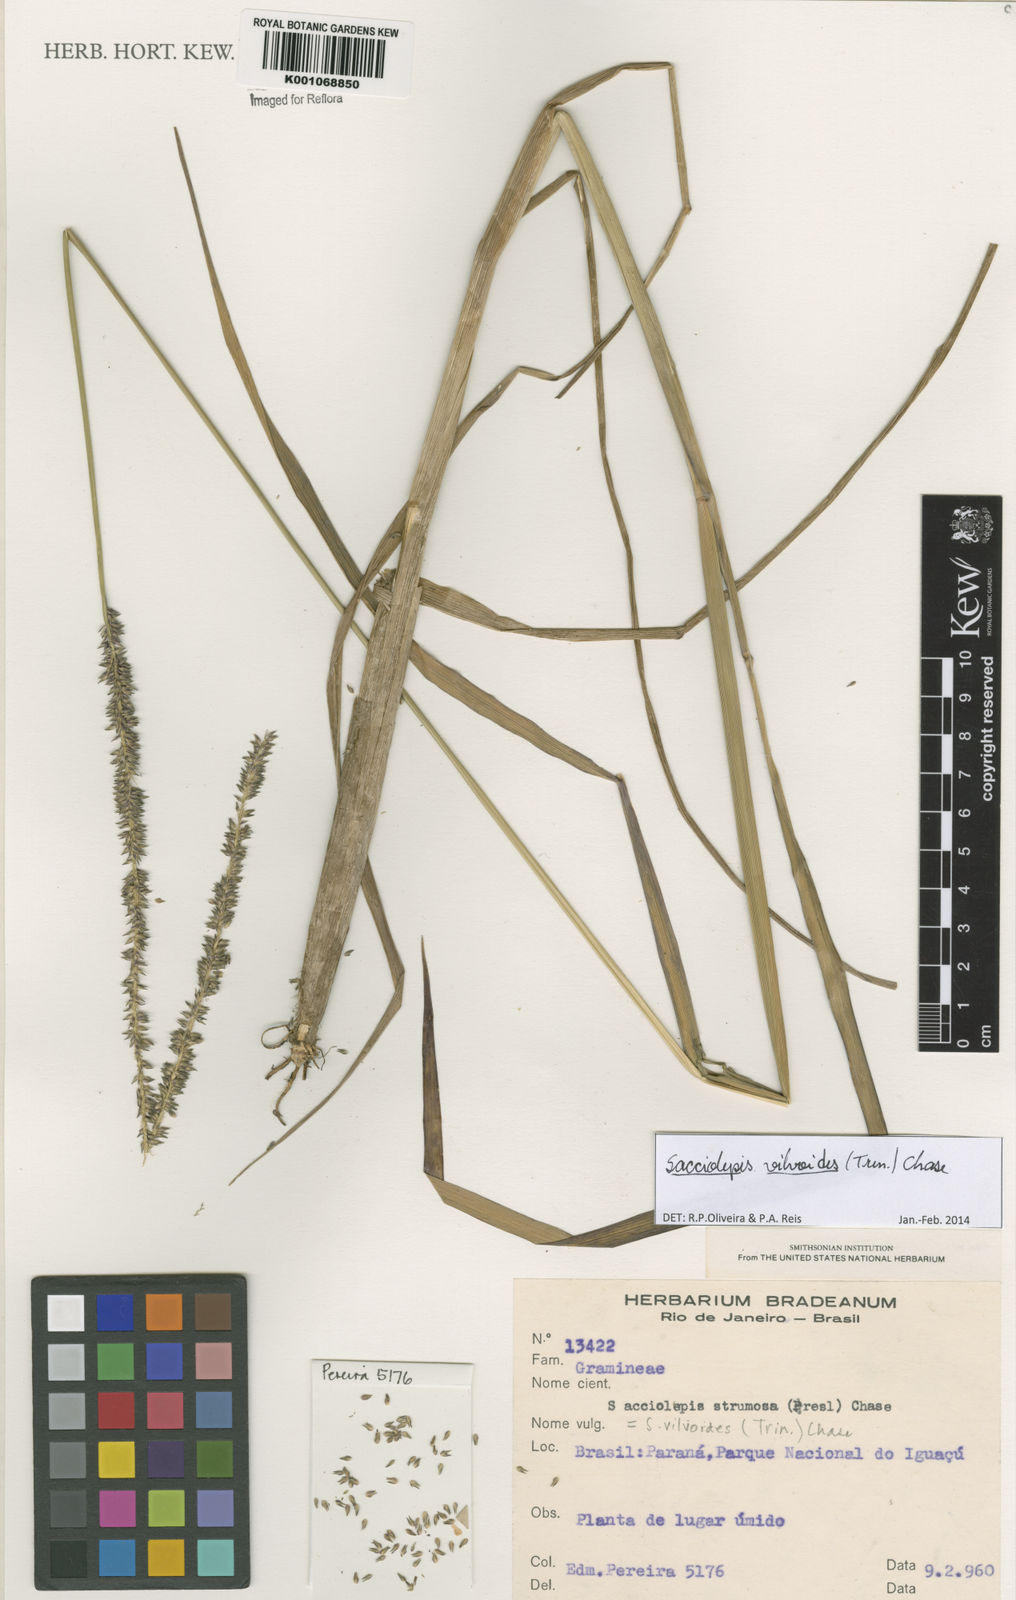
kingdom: Plantae
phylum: Tracheophyta
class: Liliopsida
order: Poales
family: Poaceae
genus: Sacciolepis
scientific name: Sacciolepis vilvoides
